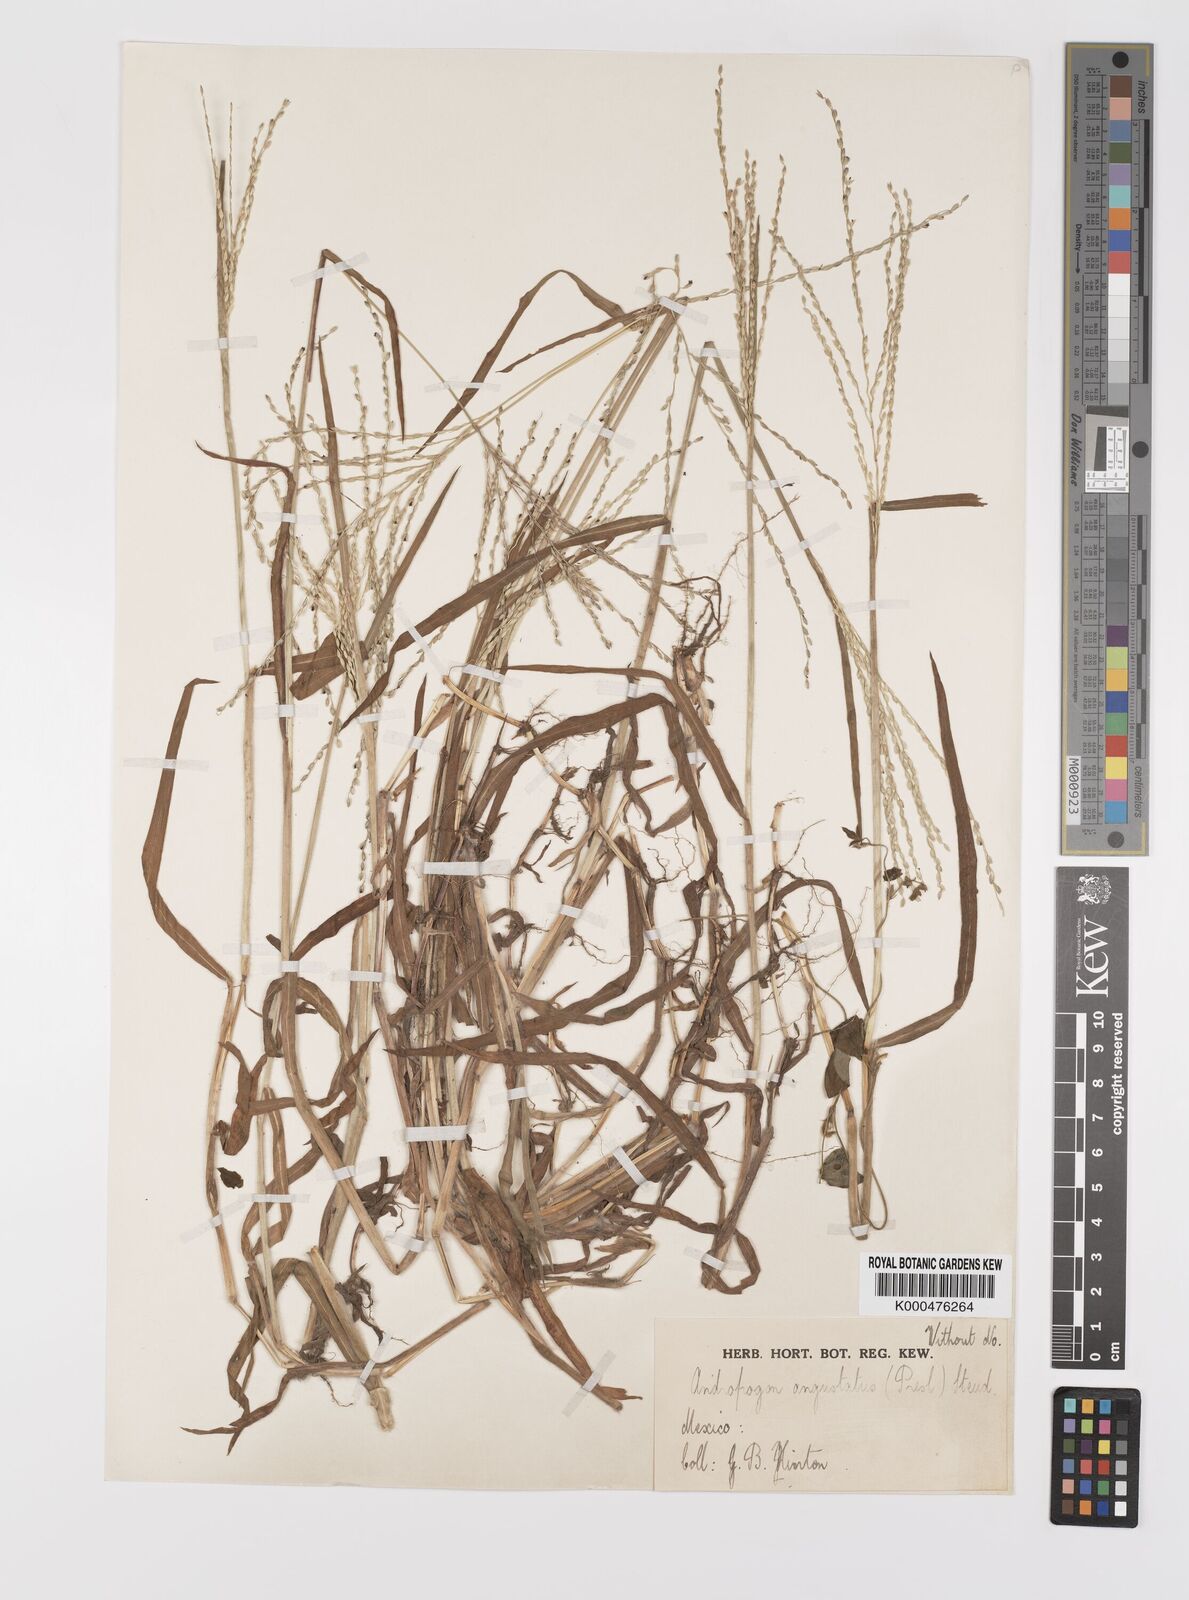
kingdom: Plantae
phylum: Tracheophyta
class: Liliopsida
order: Poales
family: Poaceae
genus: Digitaria
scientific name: Digitaria
